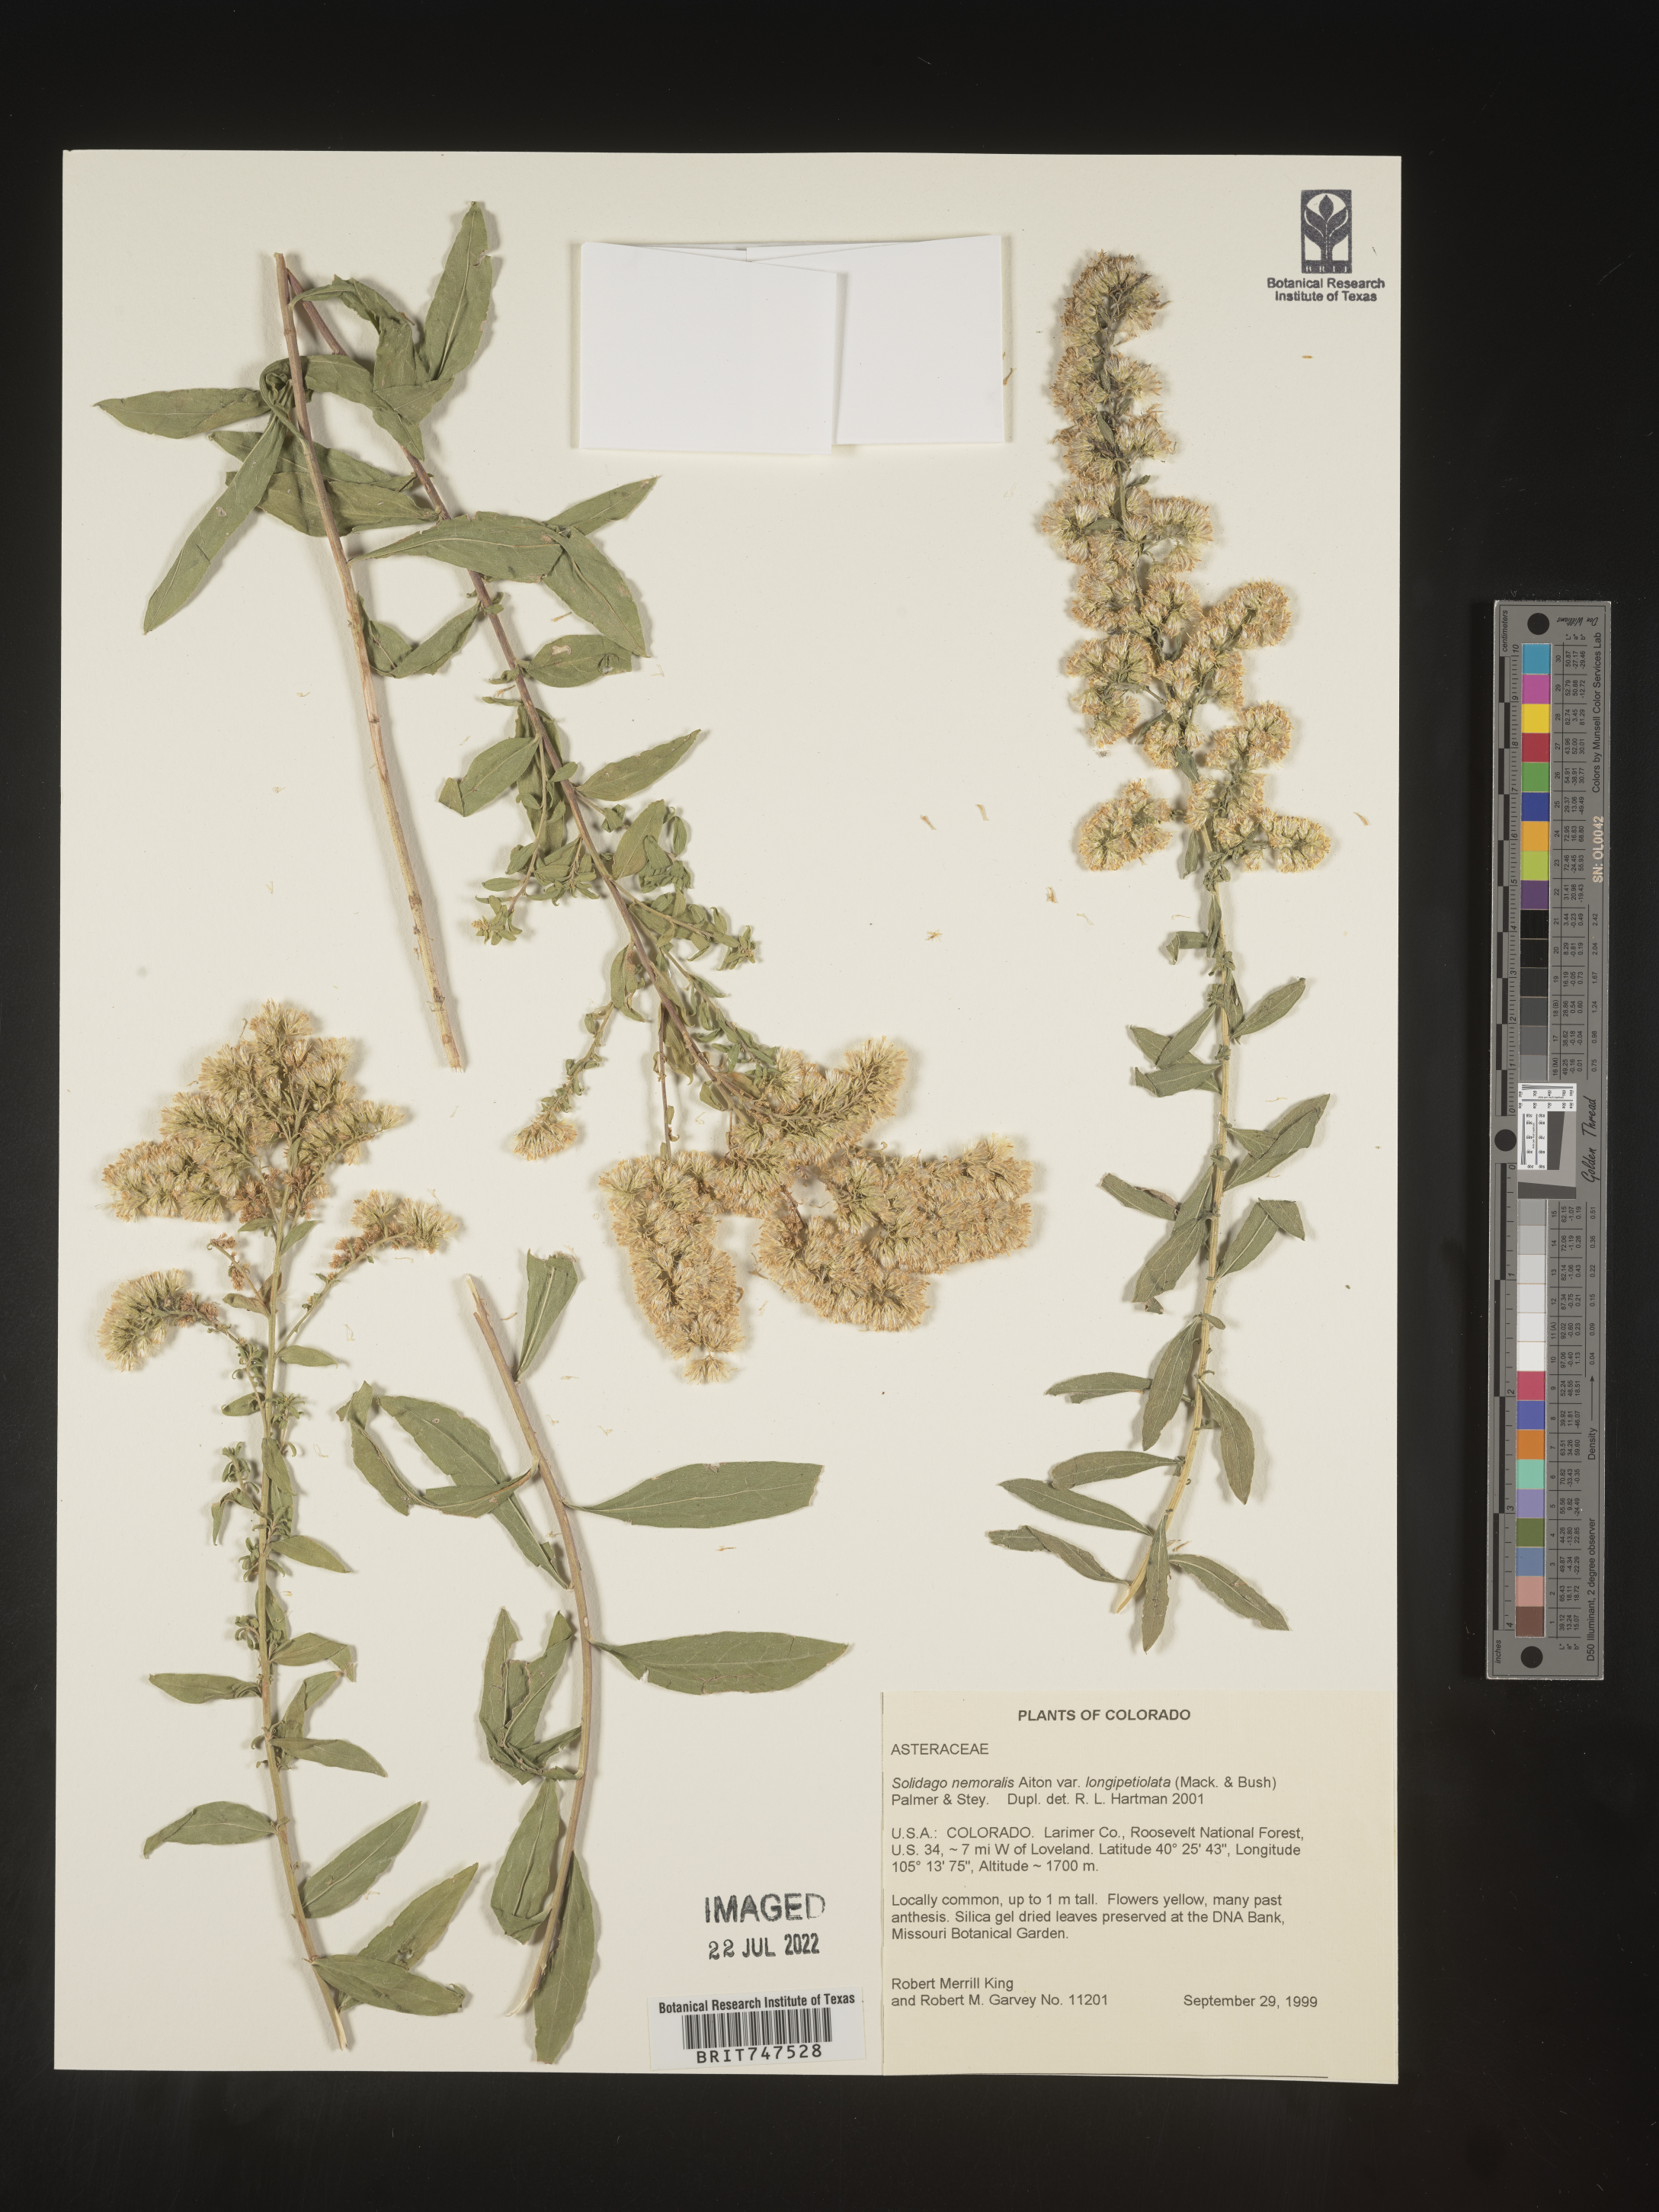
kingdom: Plantae
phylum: Tracheophyta
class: Magnoliopsida
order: Asterales
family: Asteraceae
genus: Solidago
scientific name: Solidago nemoralis
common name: Grey goldenrod
